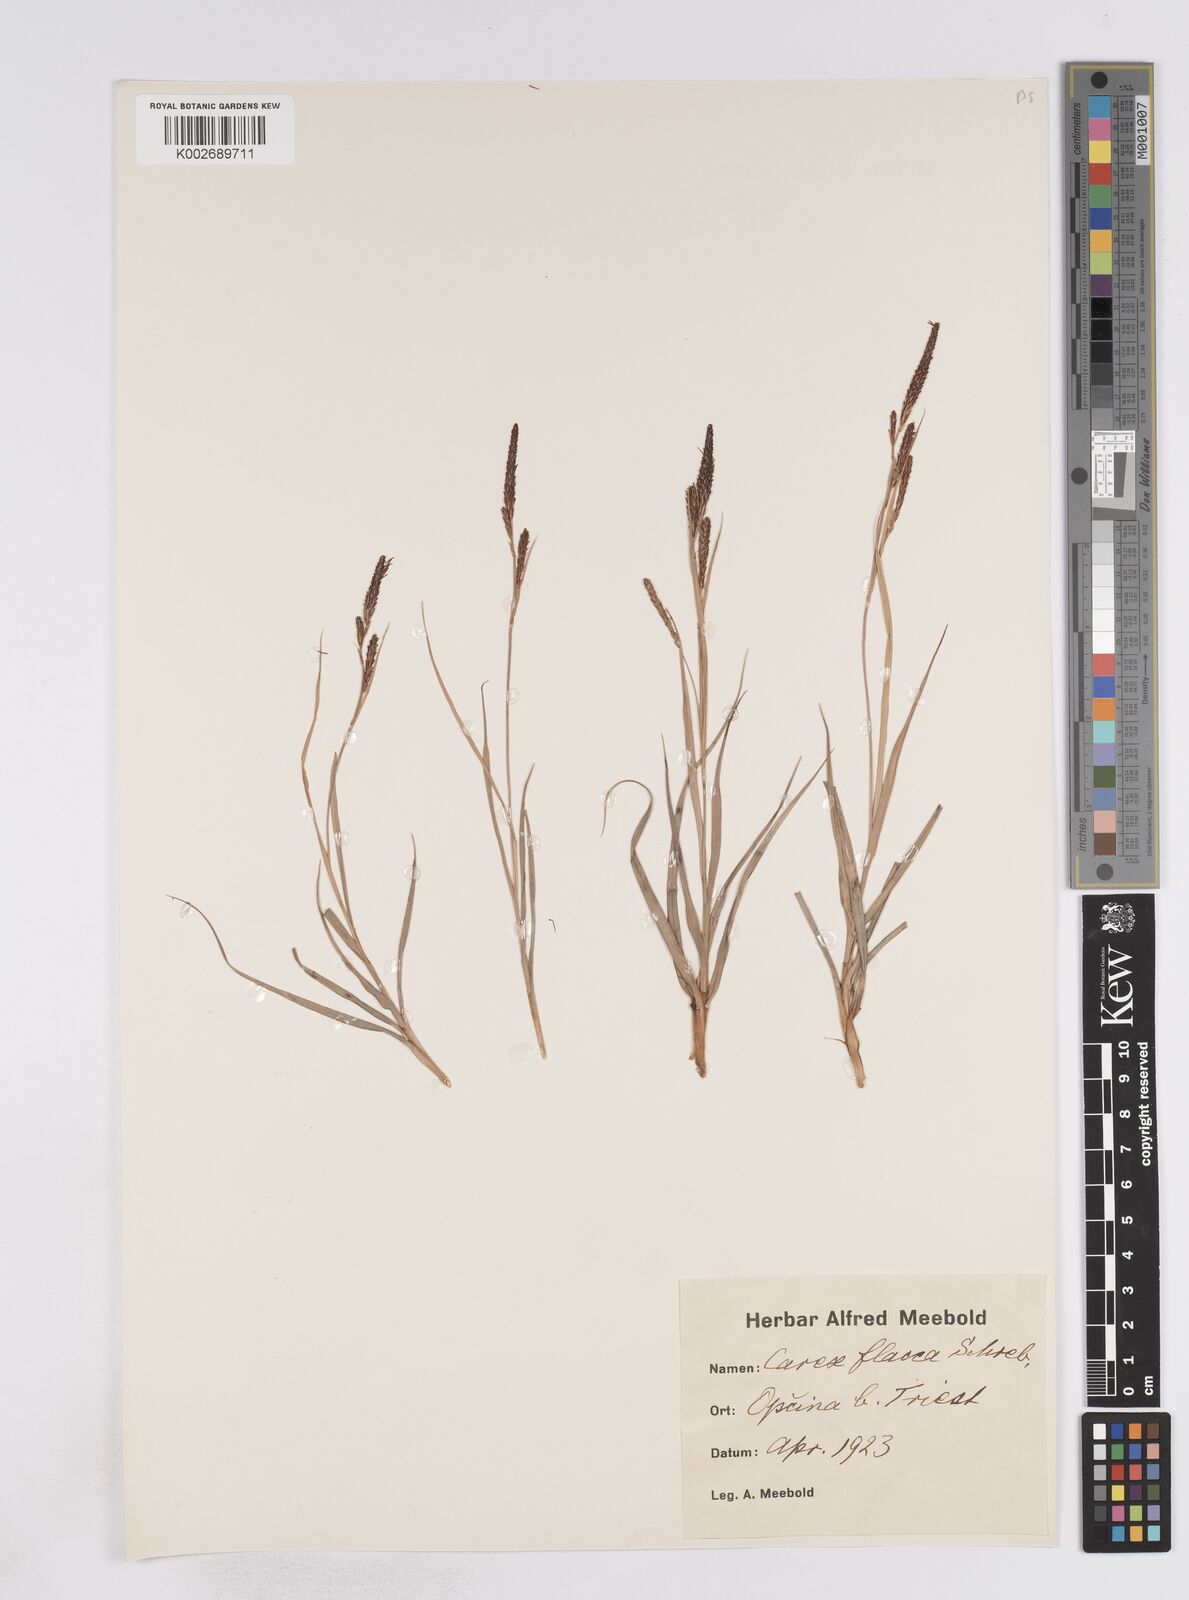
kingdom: Plantae
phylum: Tracheophyta
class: Liliopsida
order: Poales
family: Cyperaceae
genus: Carex
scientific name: Carex flacca
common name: Glaucous sedge
